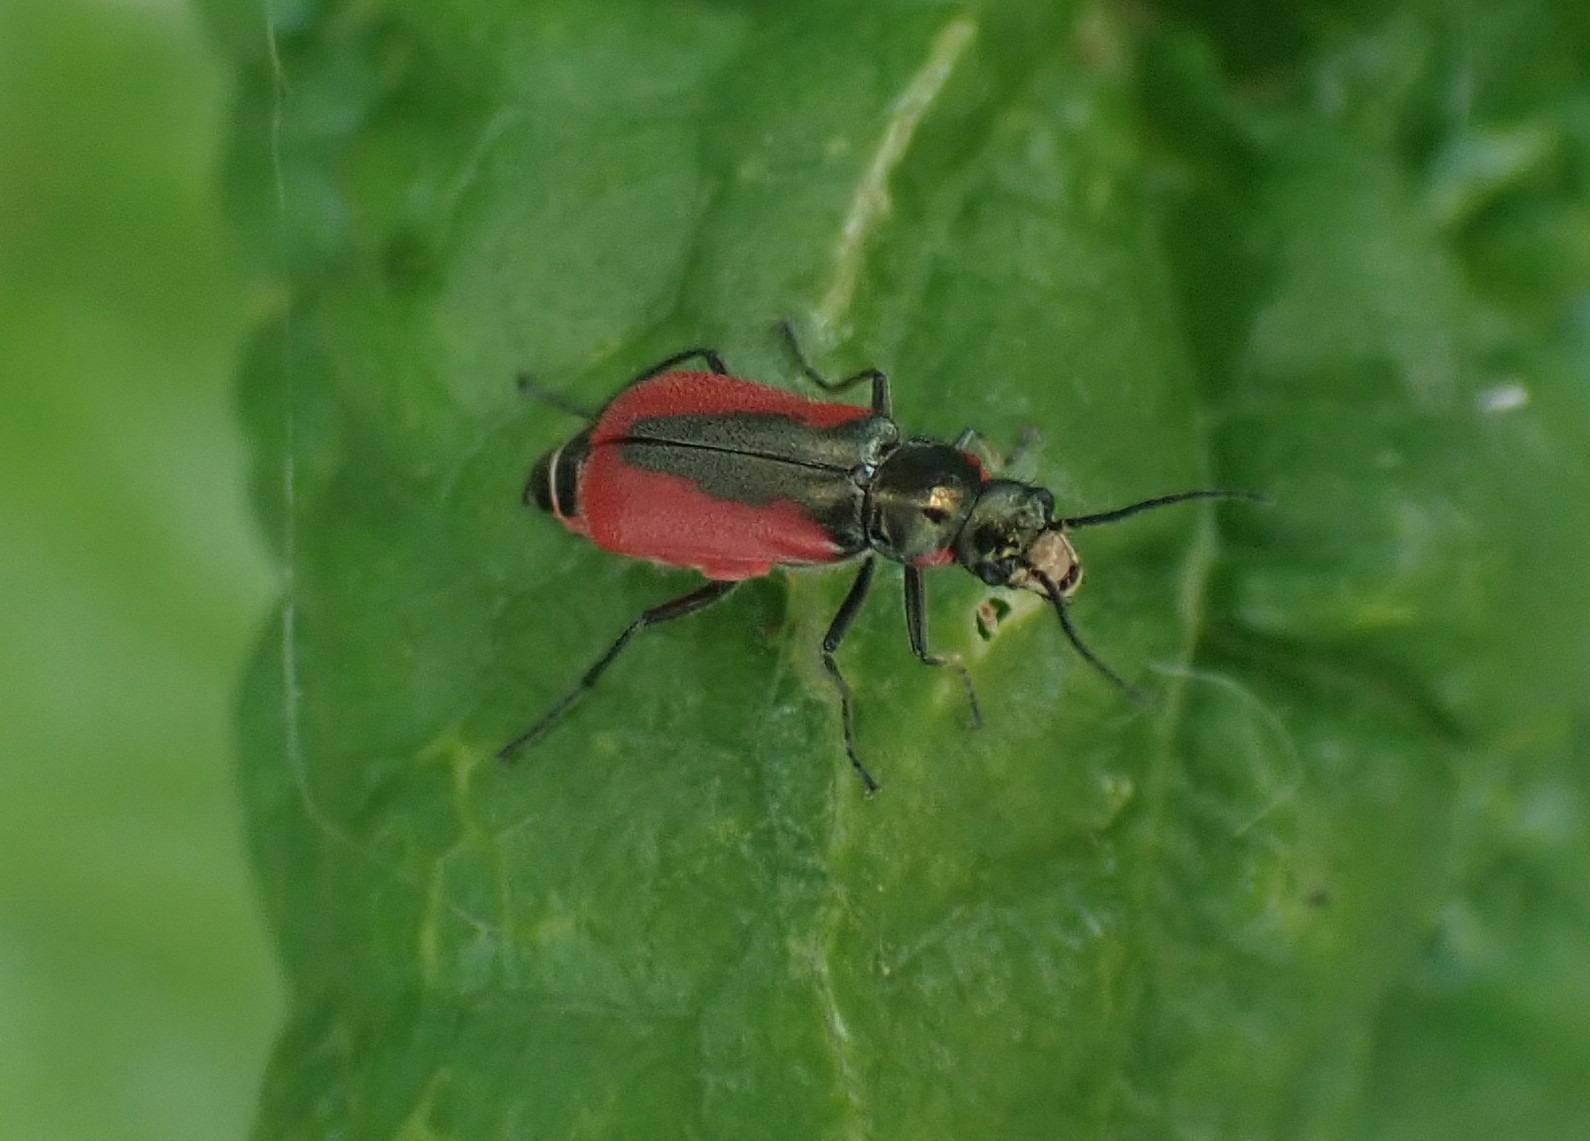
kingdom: Animalia
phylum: Arthropoda
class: Insecta
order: Coleoptera
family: Melyridae
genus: Malachius
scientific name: Malachius aeneus
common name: Stor malakitbille
